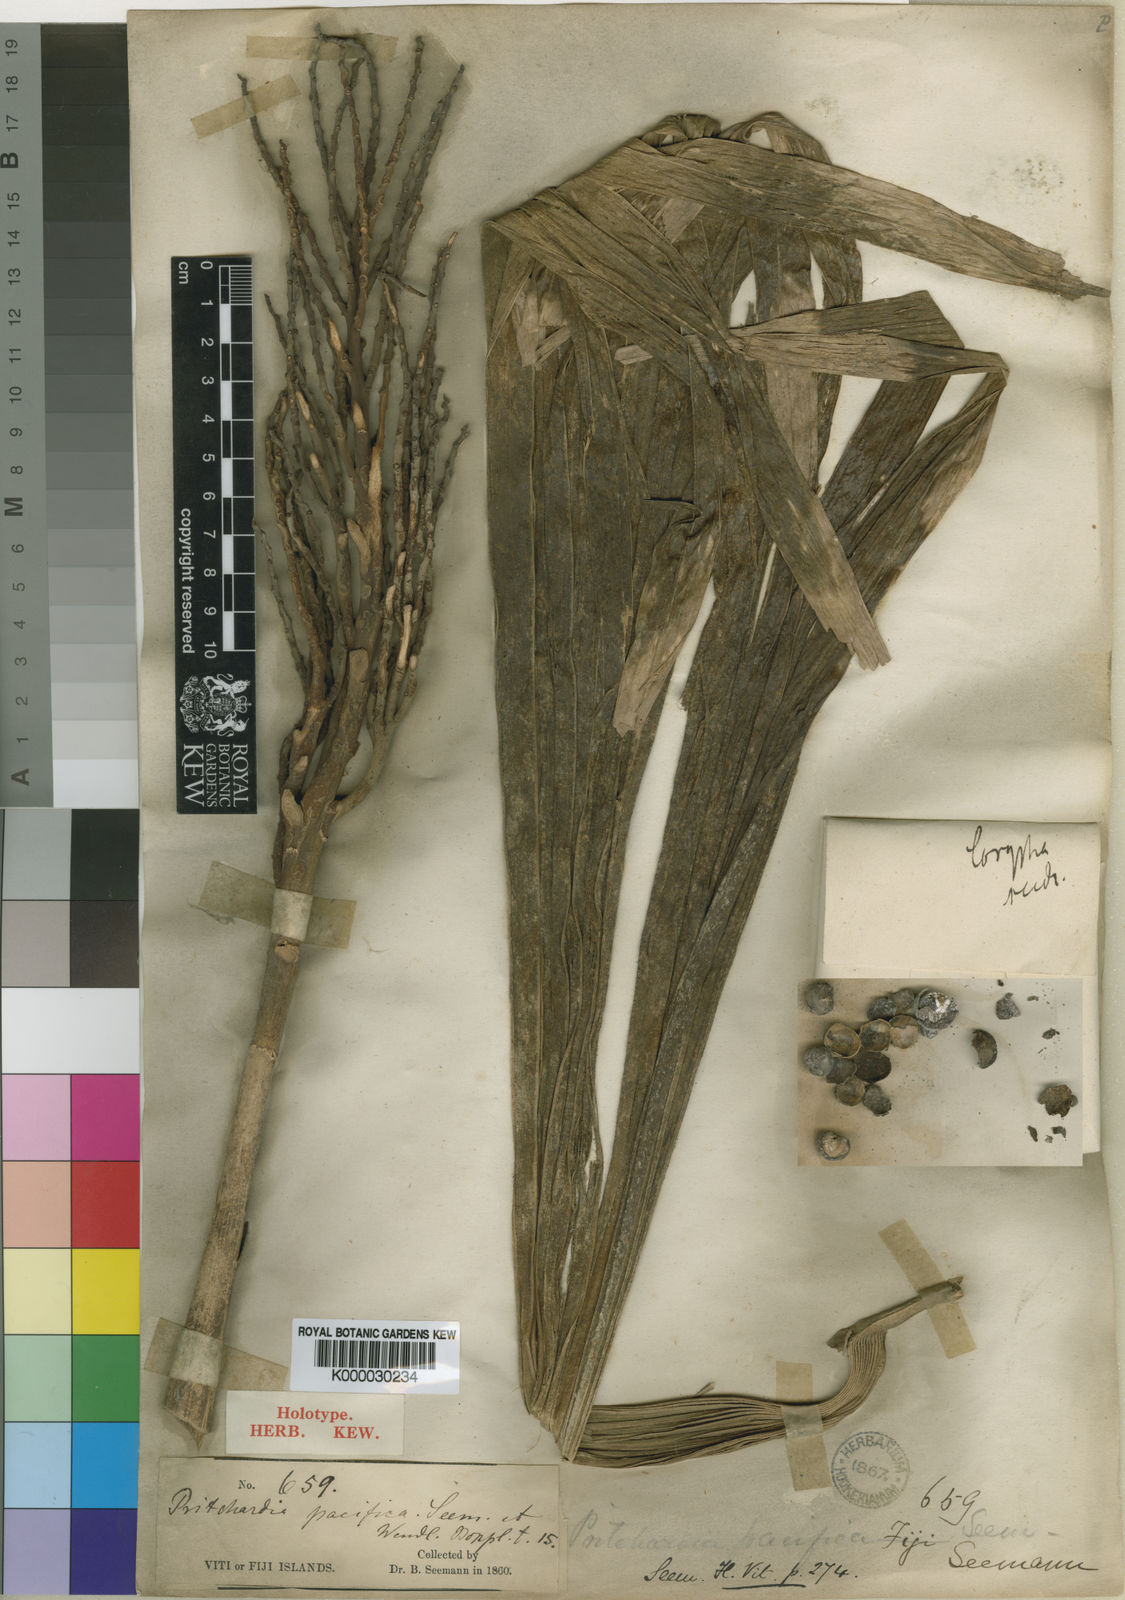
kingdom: Plantae
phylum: Tracheophyta
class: Liliopsida
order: Arecales
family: Arecaceae
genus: Pritchardia
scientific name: Pritchardia pacifica
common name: Fiji fan palm
